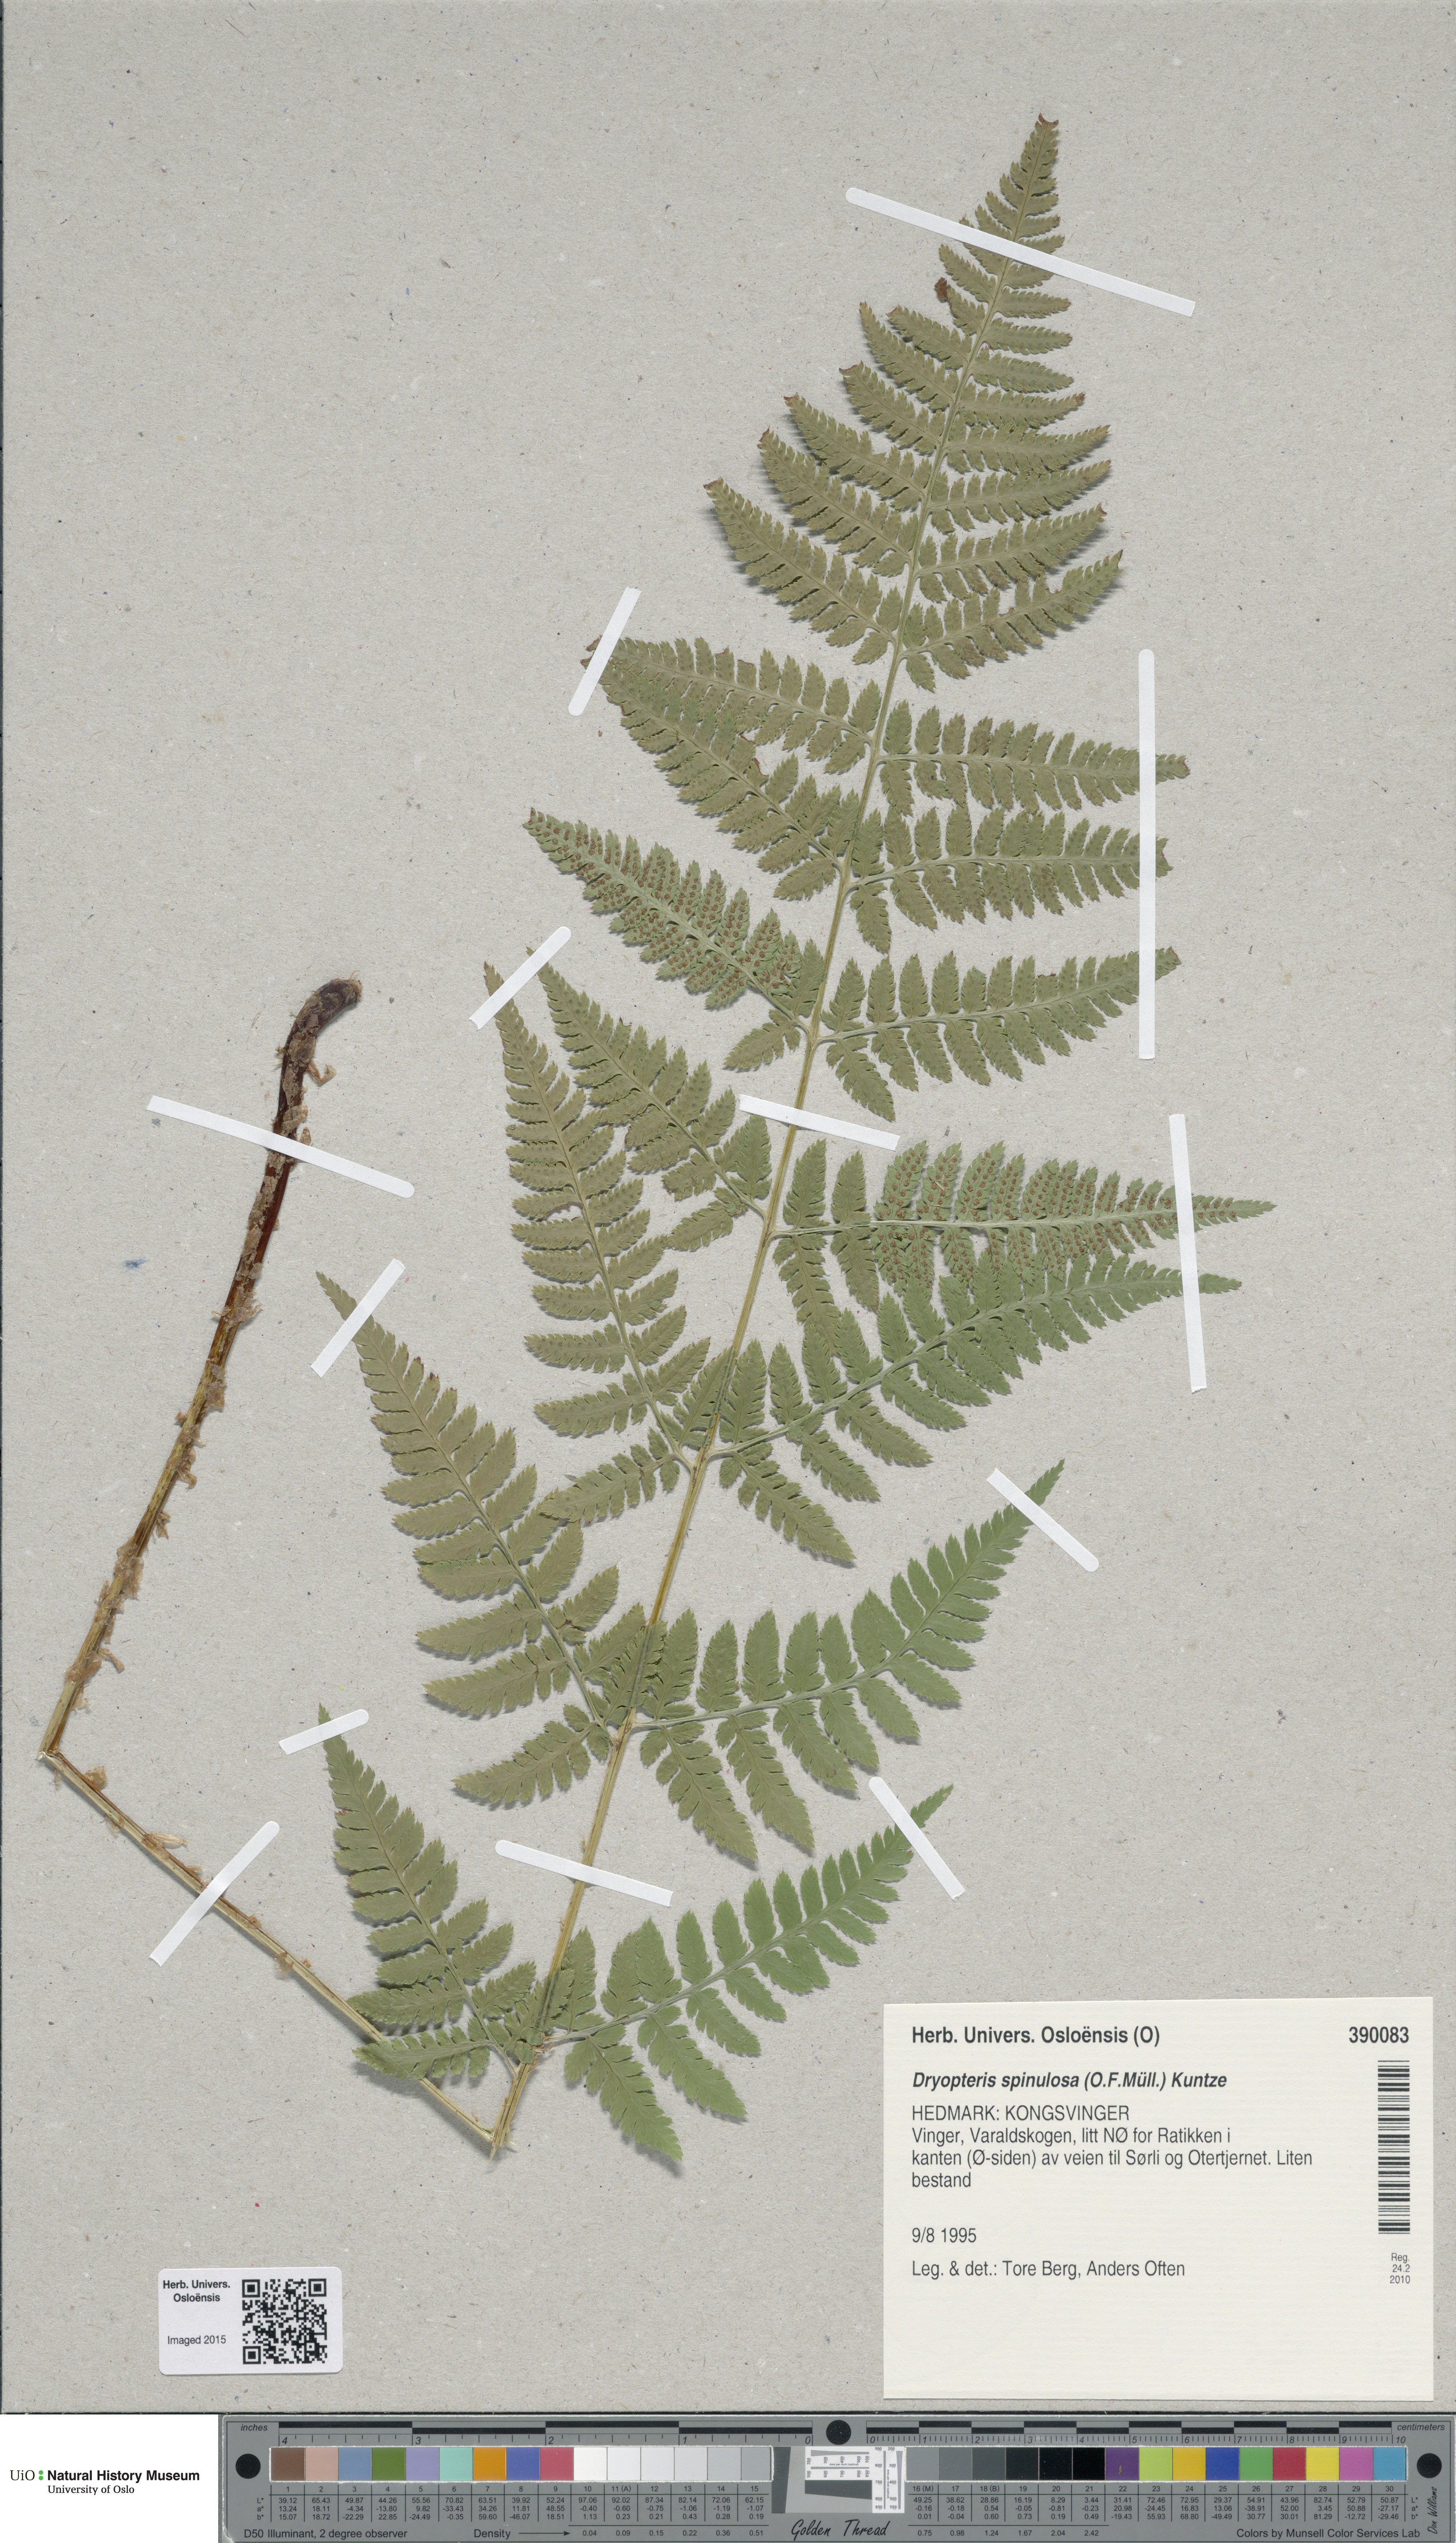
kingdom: Plantae
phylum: Tracheophyta
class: Polypodiopsida
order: Polypodiales
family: Dryopteridaceae
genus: Dryopteris
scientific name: Dryopteris carthusiana
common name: Narrow buckler-fern
